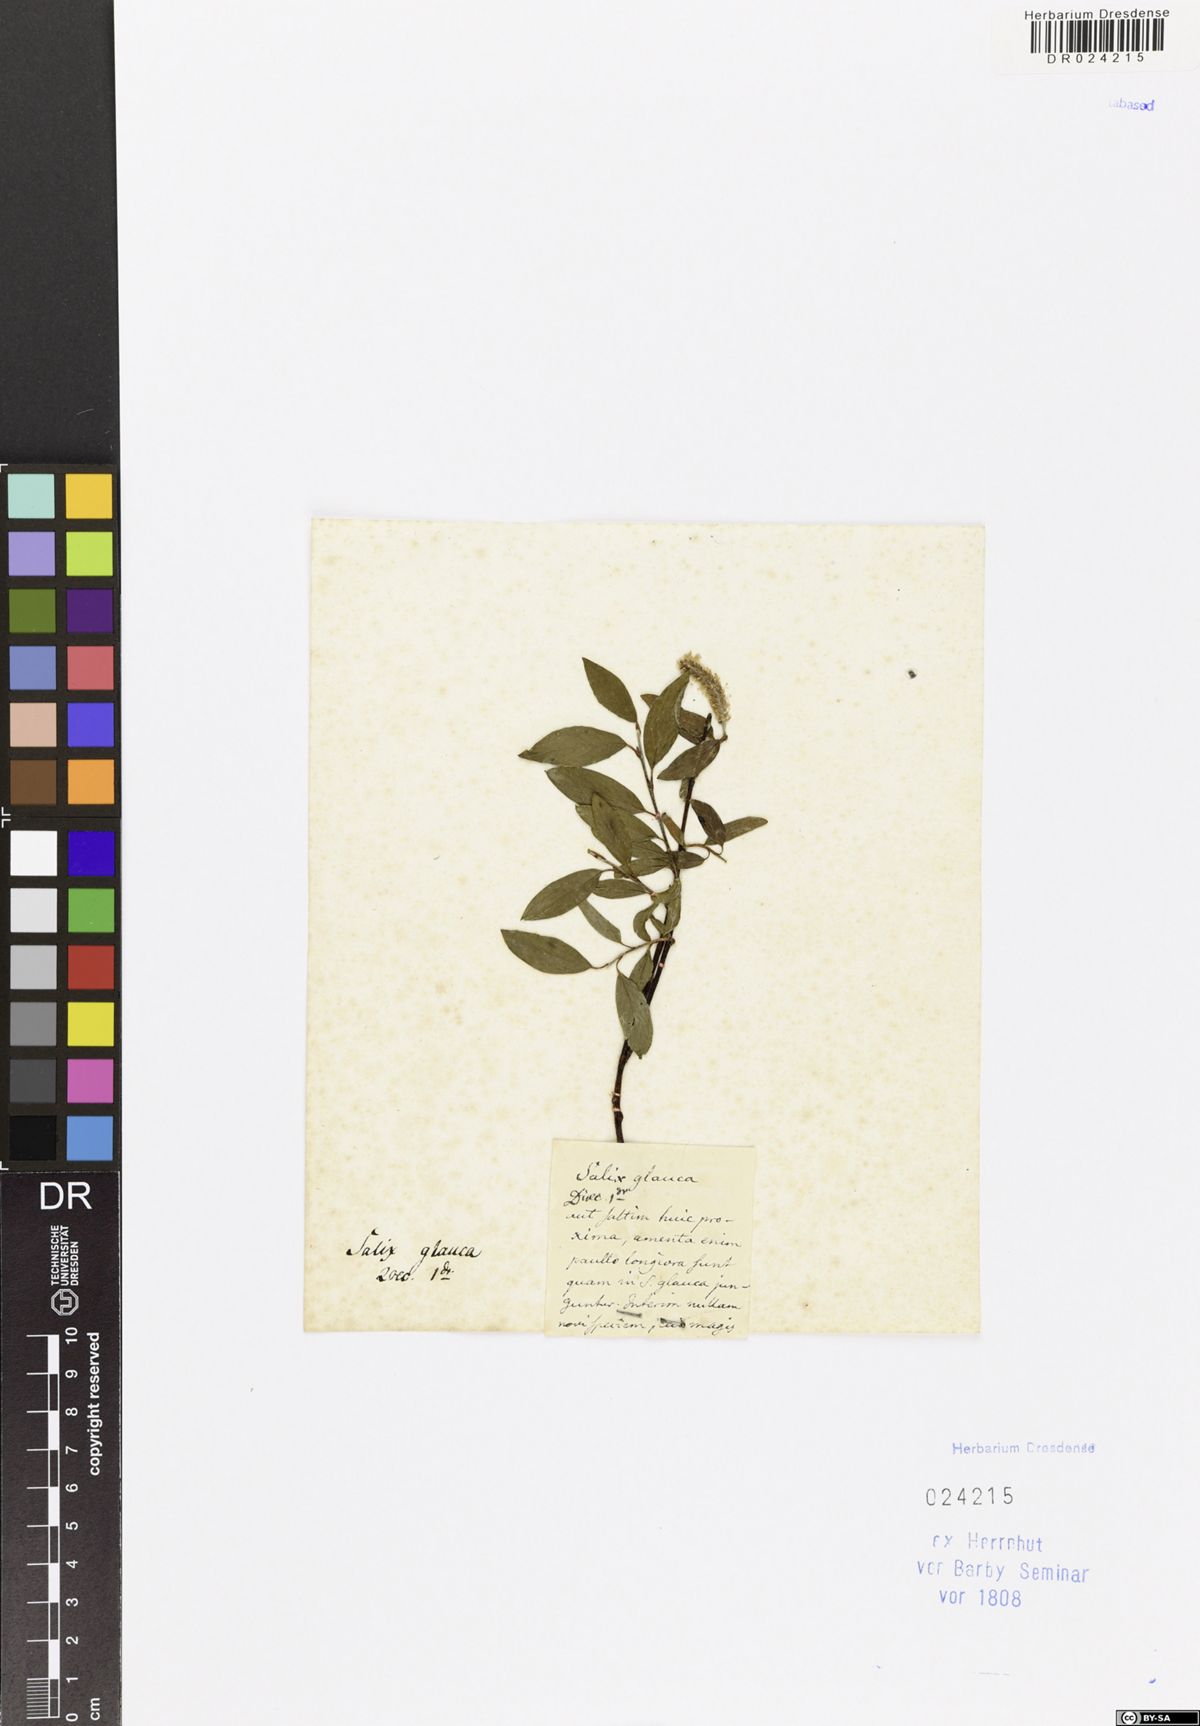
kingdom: Plantae
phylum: Tracheophyta
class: Magnoliopsida
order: Malpighiales
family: Salicaceae
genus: Salix
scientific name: Salix glauca
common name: Glaucous willow
